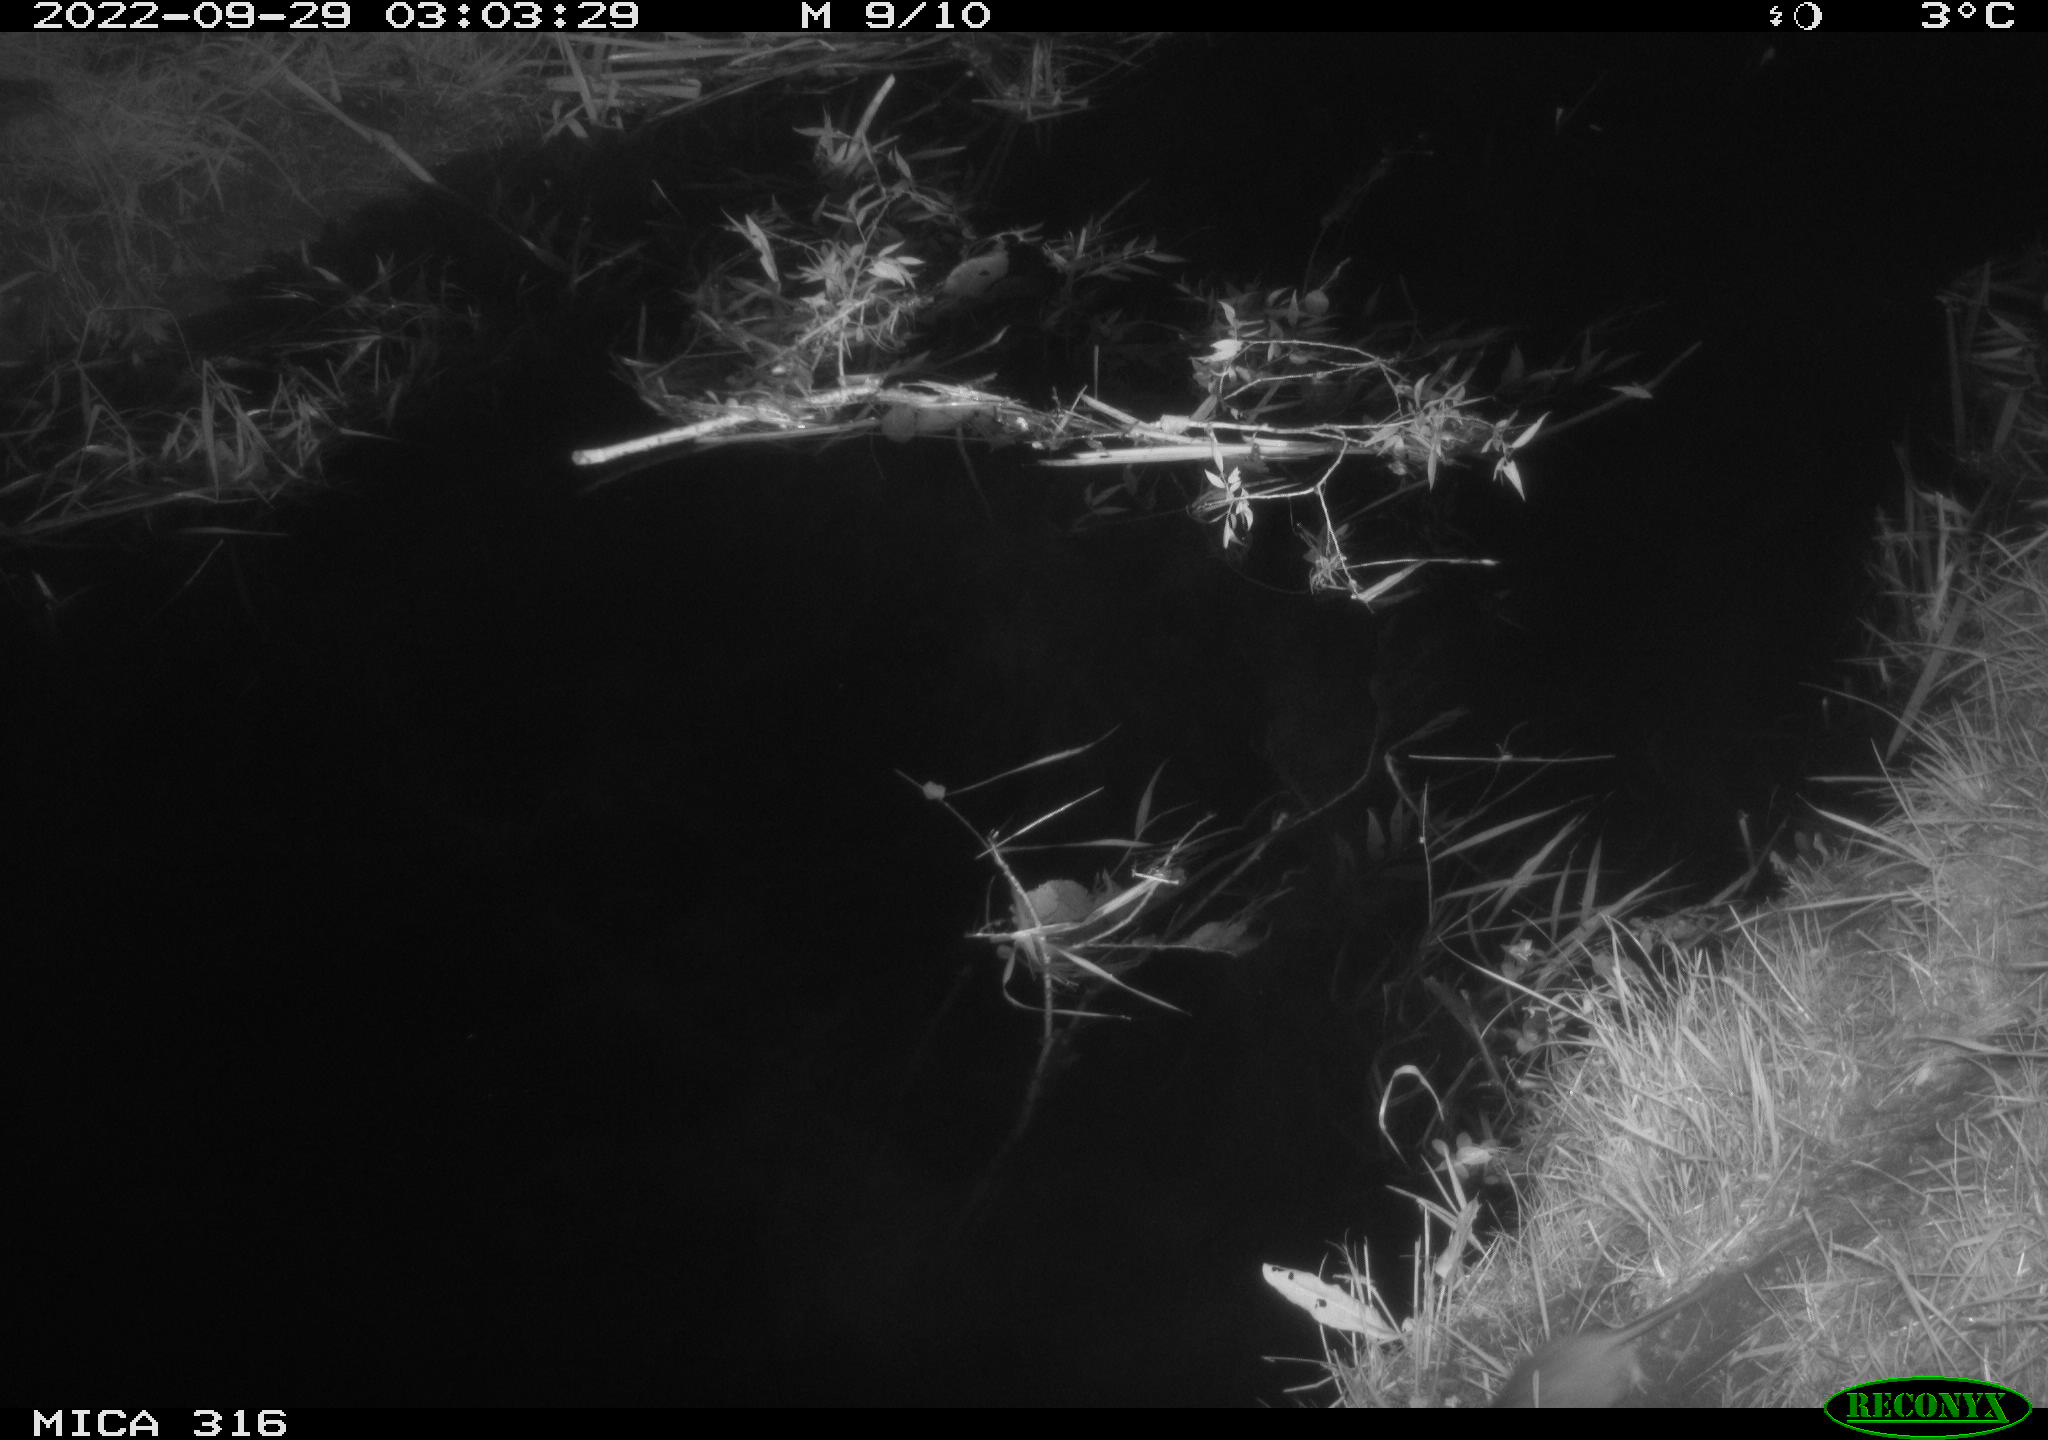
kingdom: Animalia
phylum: Chordata
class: Mammalia
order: Rodentia
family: Muridae
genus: Rattus
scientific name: Rattus norvegicus
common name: Brown rat
